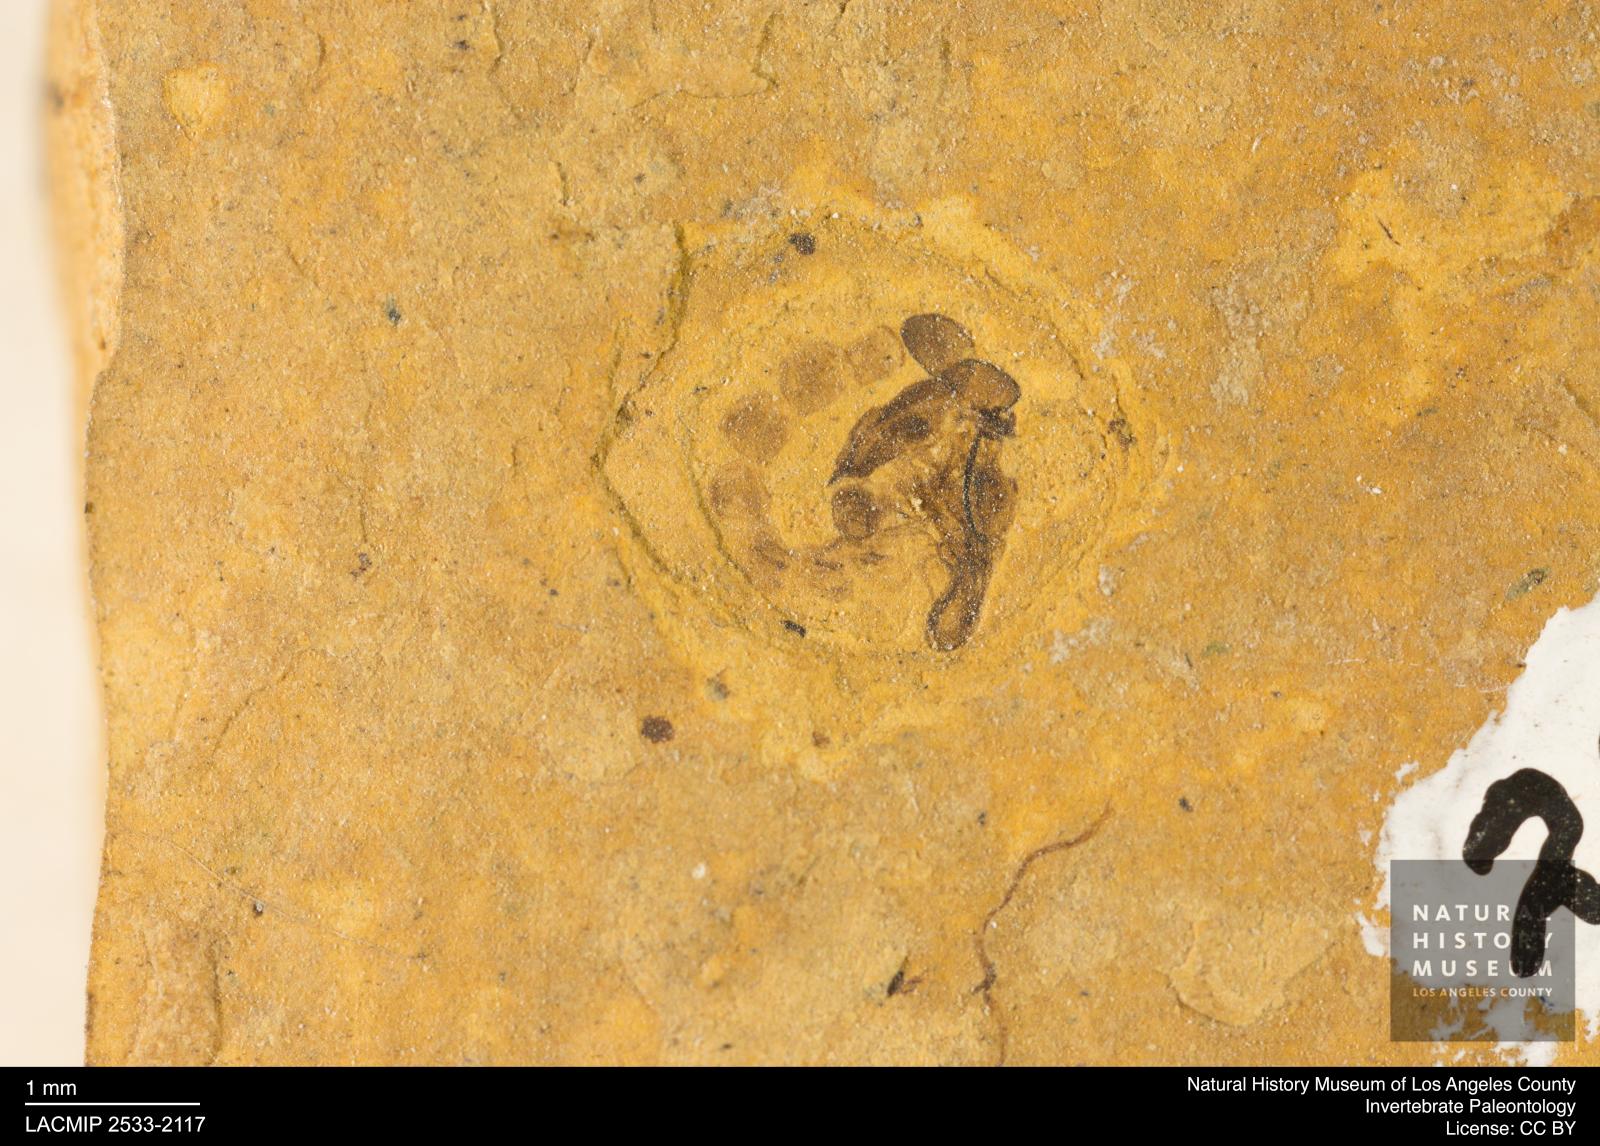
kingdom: Animalia
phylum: Arthropoda
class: Insecta
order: Diptera
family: Chironomidae
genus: Pelopiina
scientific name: Pelopiina
